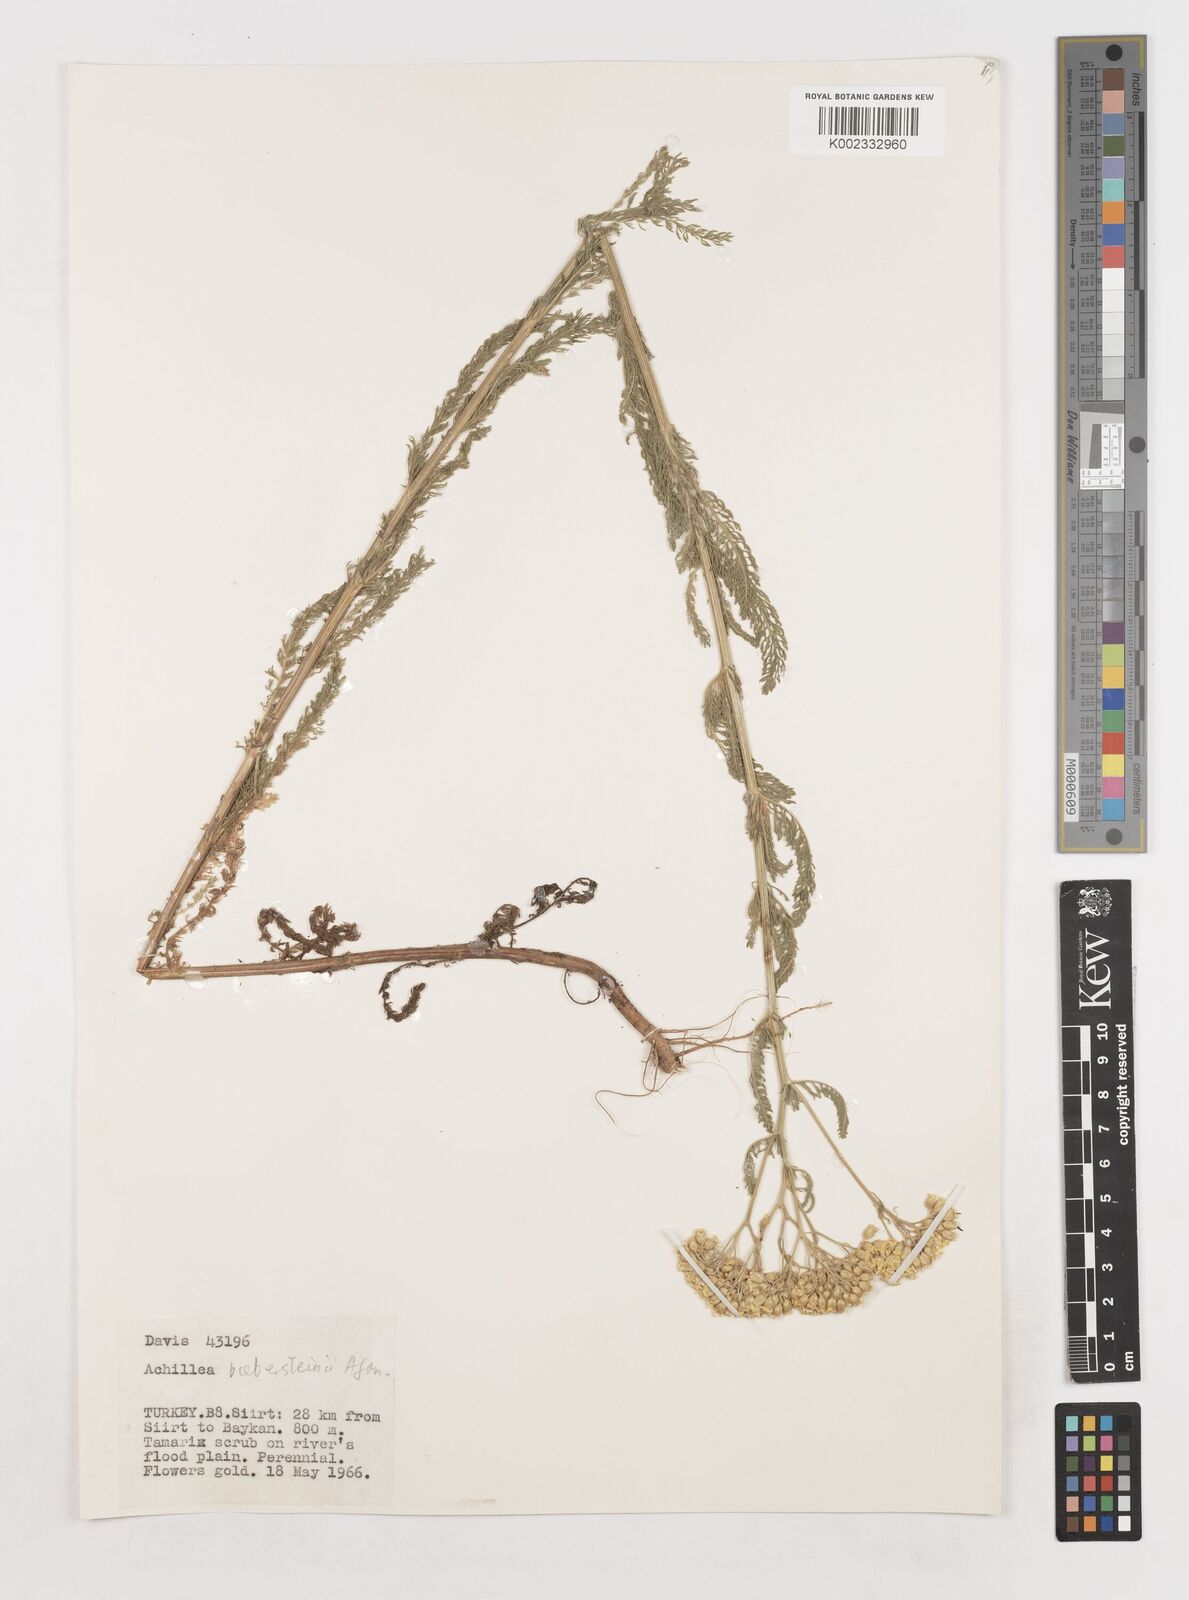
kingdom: Plantae
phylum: Tracheophyta
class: Magnoliopsida
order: Asterales
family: Asteraceae
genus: Achillea
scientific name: Achillea arabica
